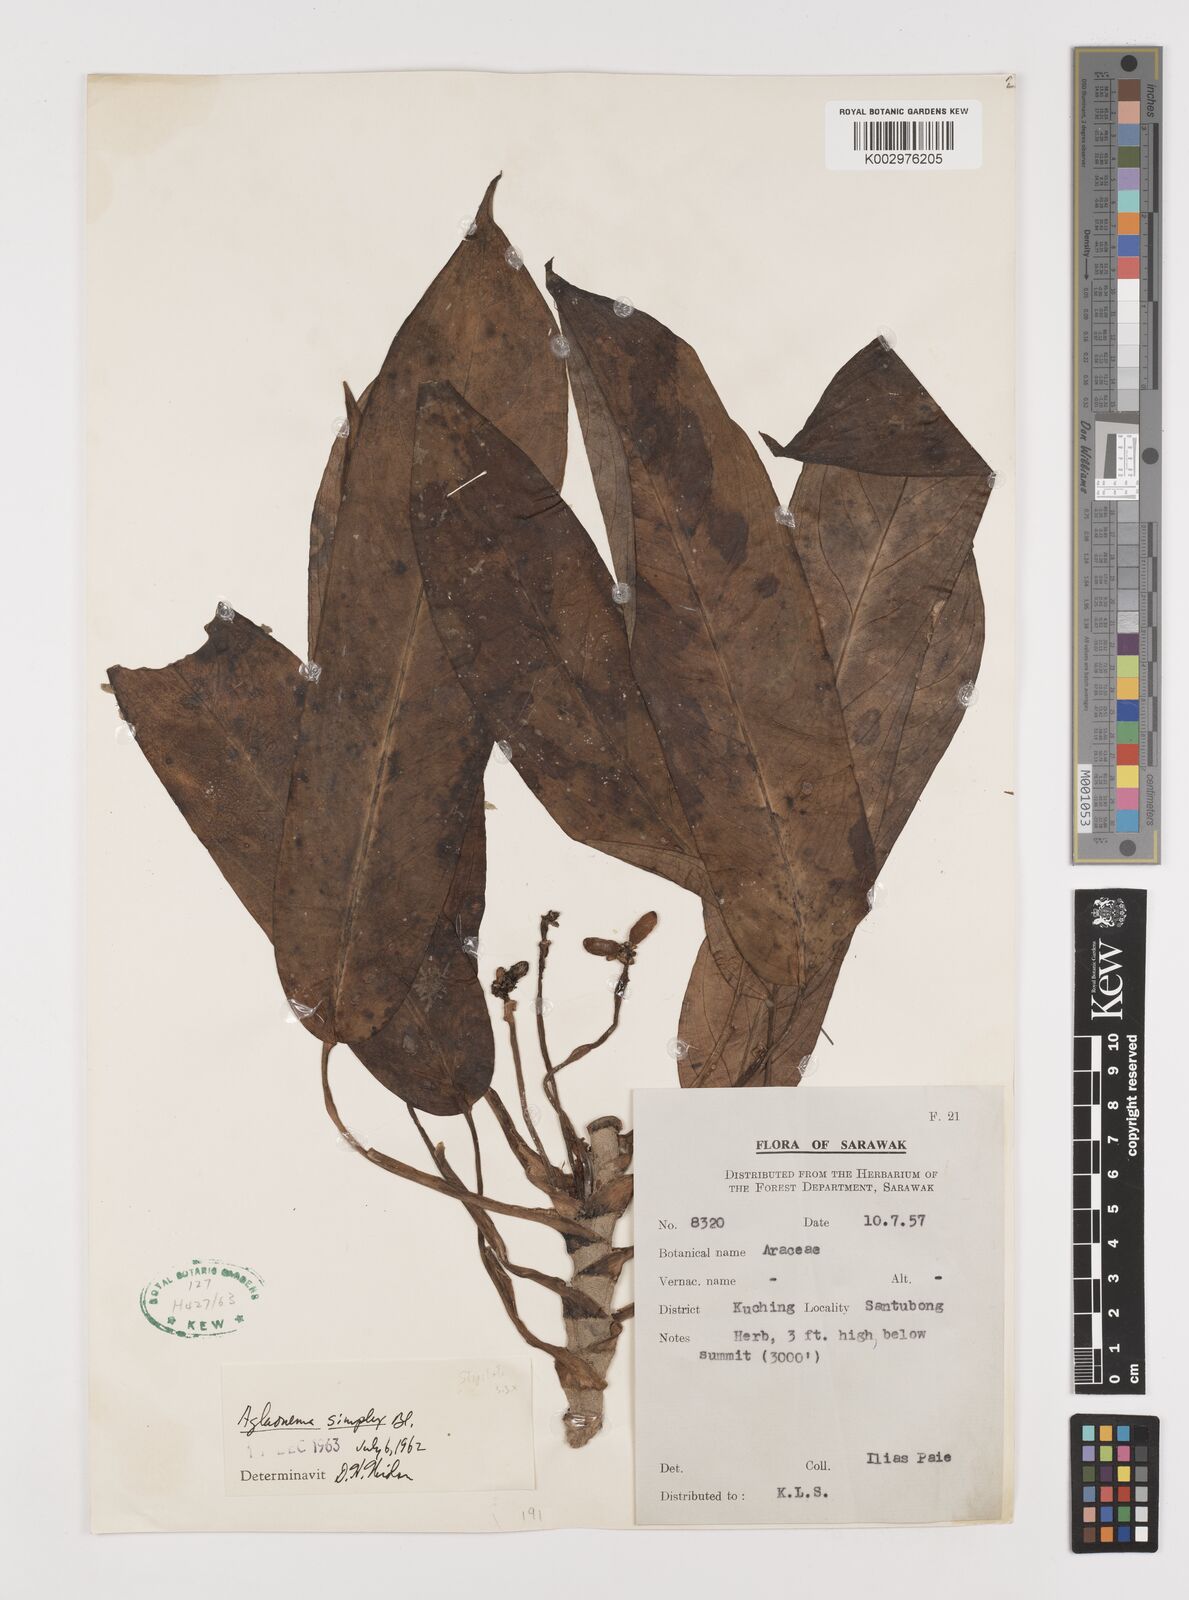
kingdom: Plantae
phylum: Tracheophyta
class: Liliopsida
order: Alismatales
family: Araceae
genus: Aglaonema
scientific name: Aglaonema simplex
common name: Malayan-sword
